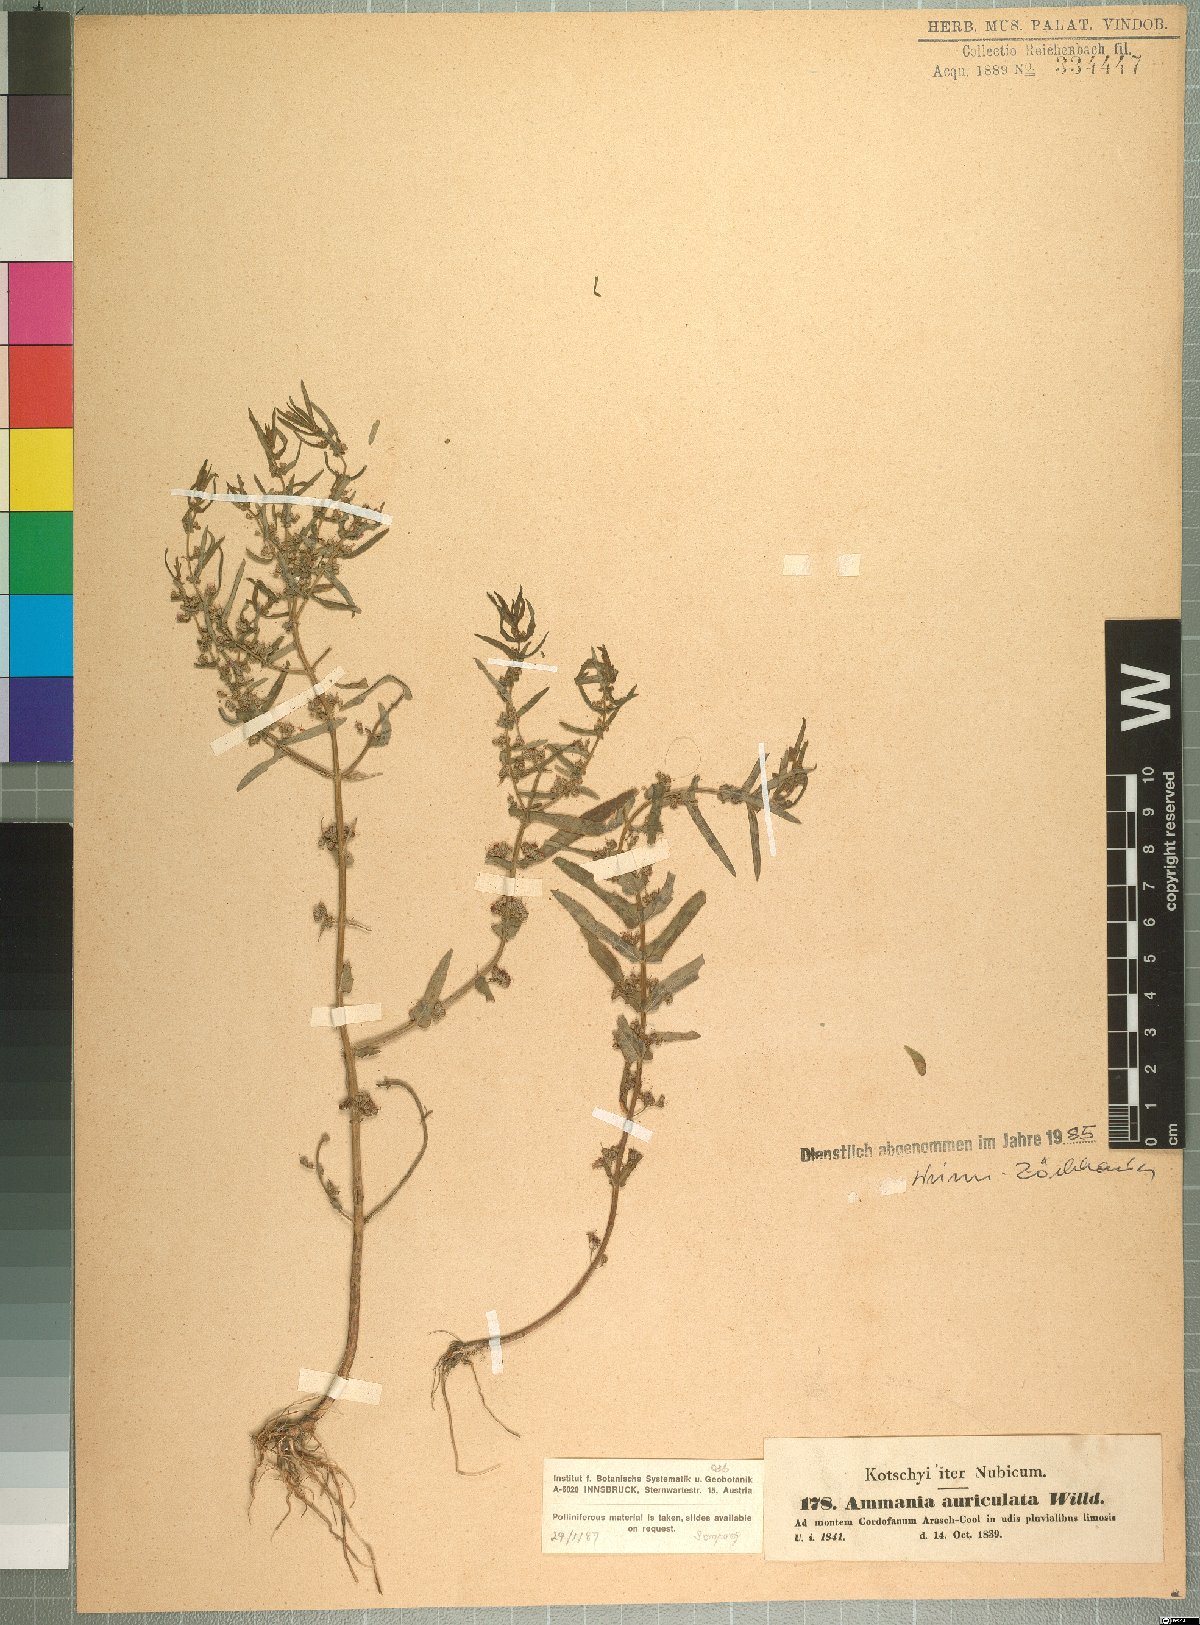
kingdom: Plantae
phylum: Tracheophyta
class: Magnoliopsida
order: Myrtales
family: Lythraceae
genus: Ammannia
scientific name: Ammannia auriculata
